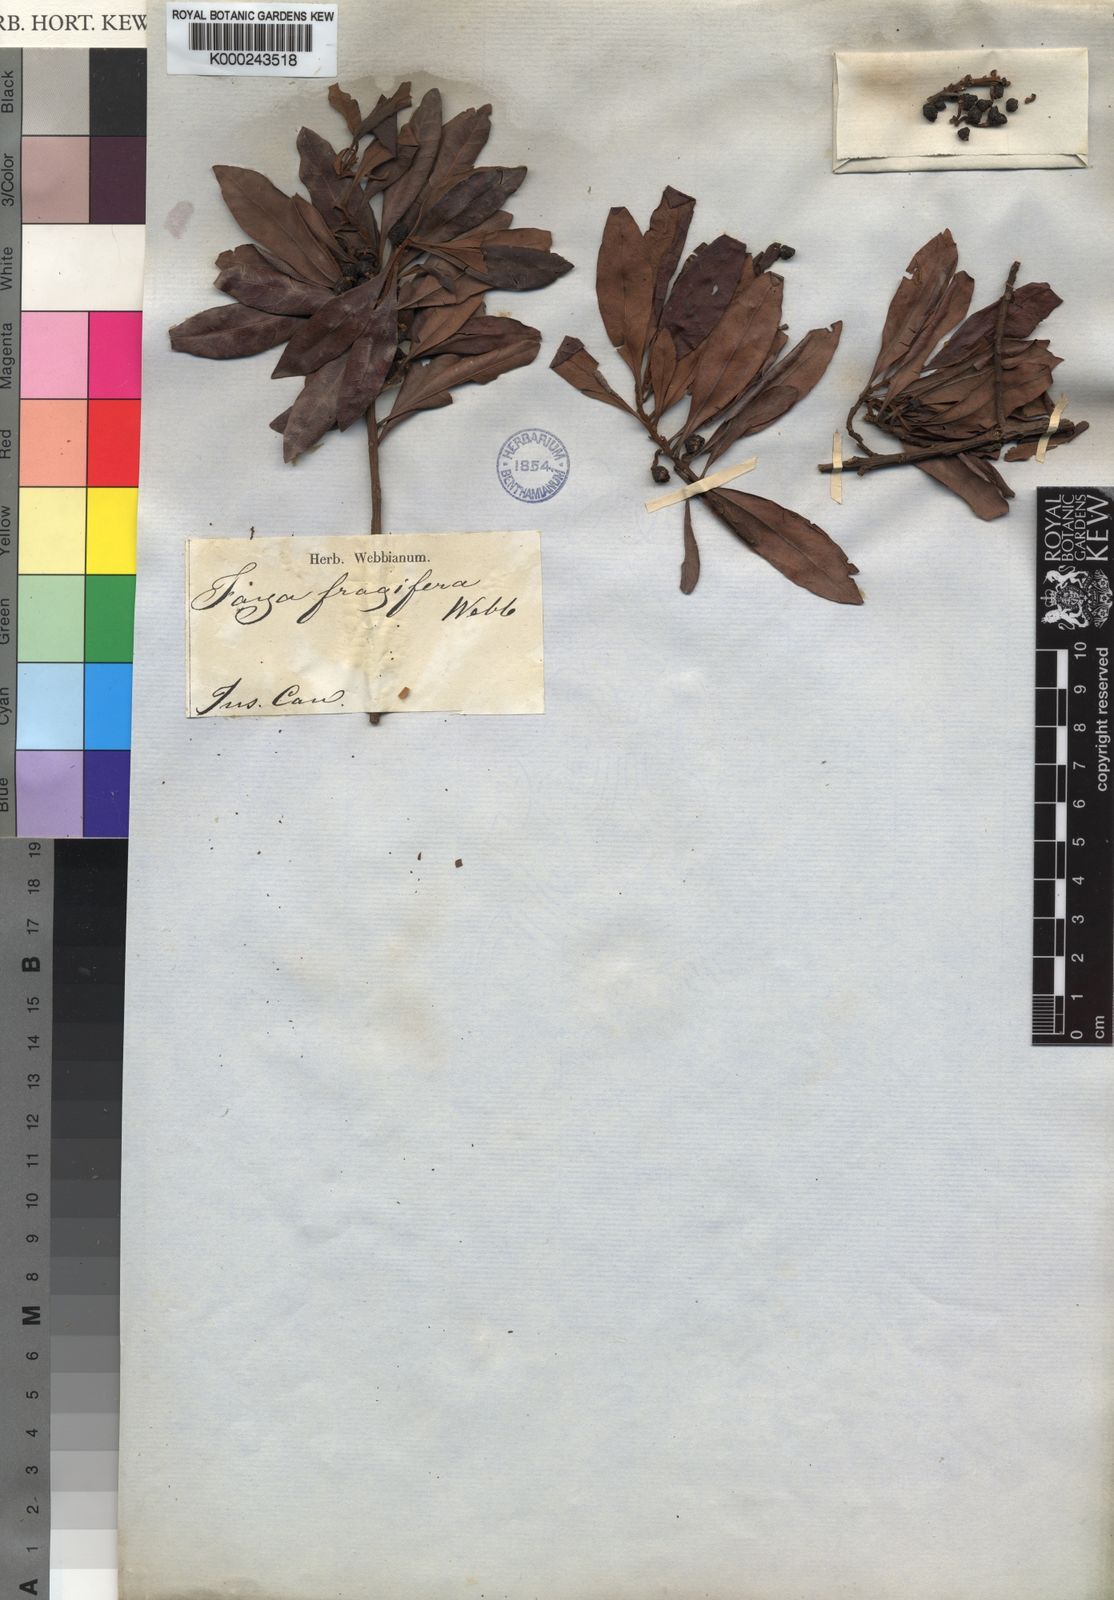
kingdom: Plantae
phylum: Tracheophyta
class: Magnoliopsida
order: Fagales
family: Myricaceae
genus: Morella
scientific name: Morella faya
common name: Firetree
